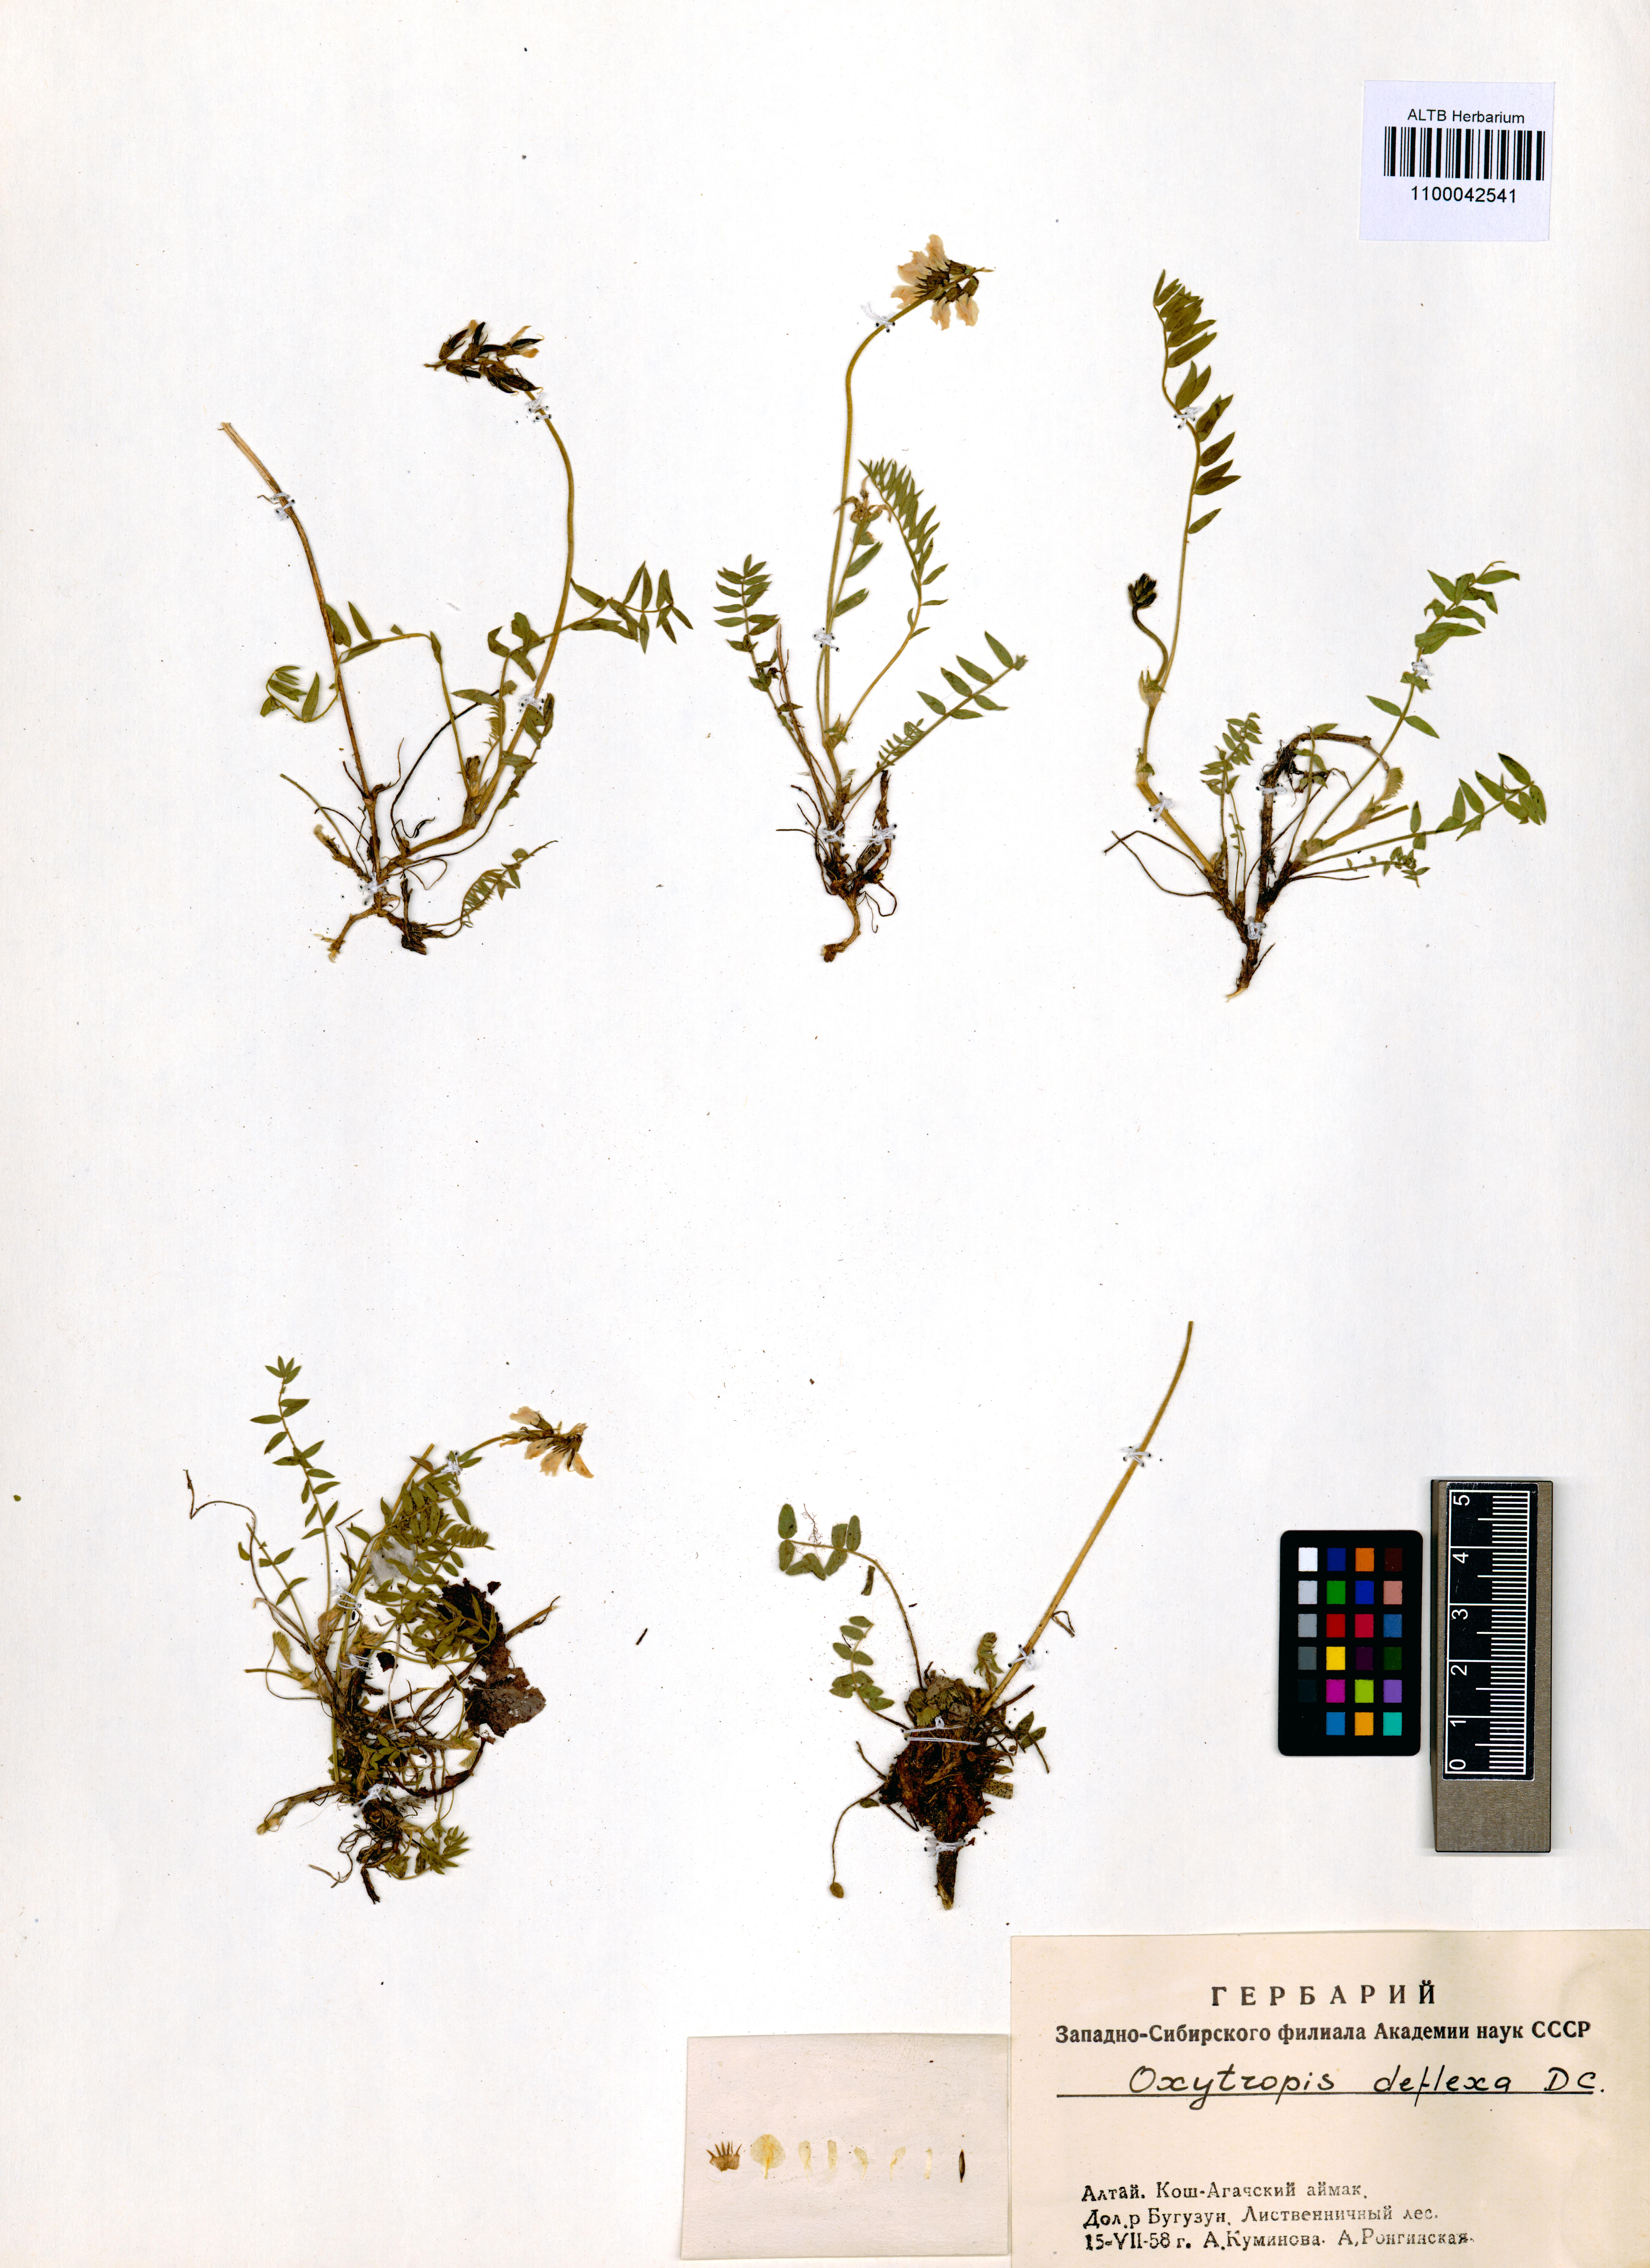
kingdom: Plantae
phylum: Tracheophyta
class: Magnoliopsida
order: Fabales
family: Fabaceae
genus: Oxytropis
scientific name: Oxytropis deflexa
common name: Stemmed oxytrope
